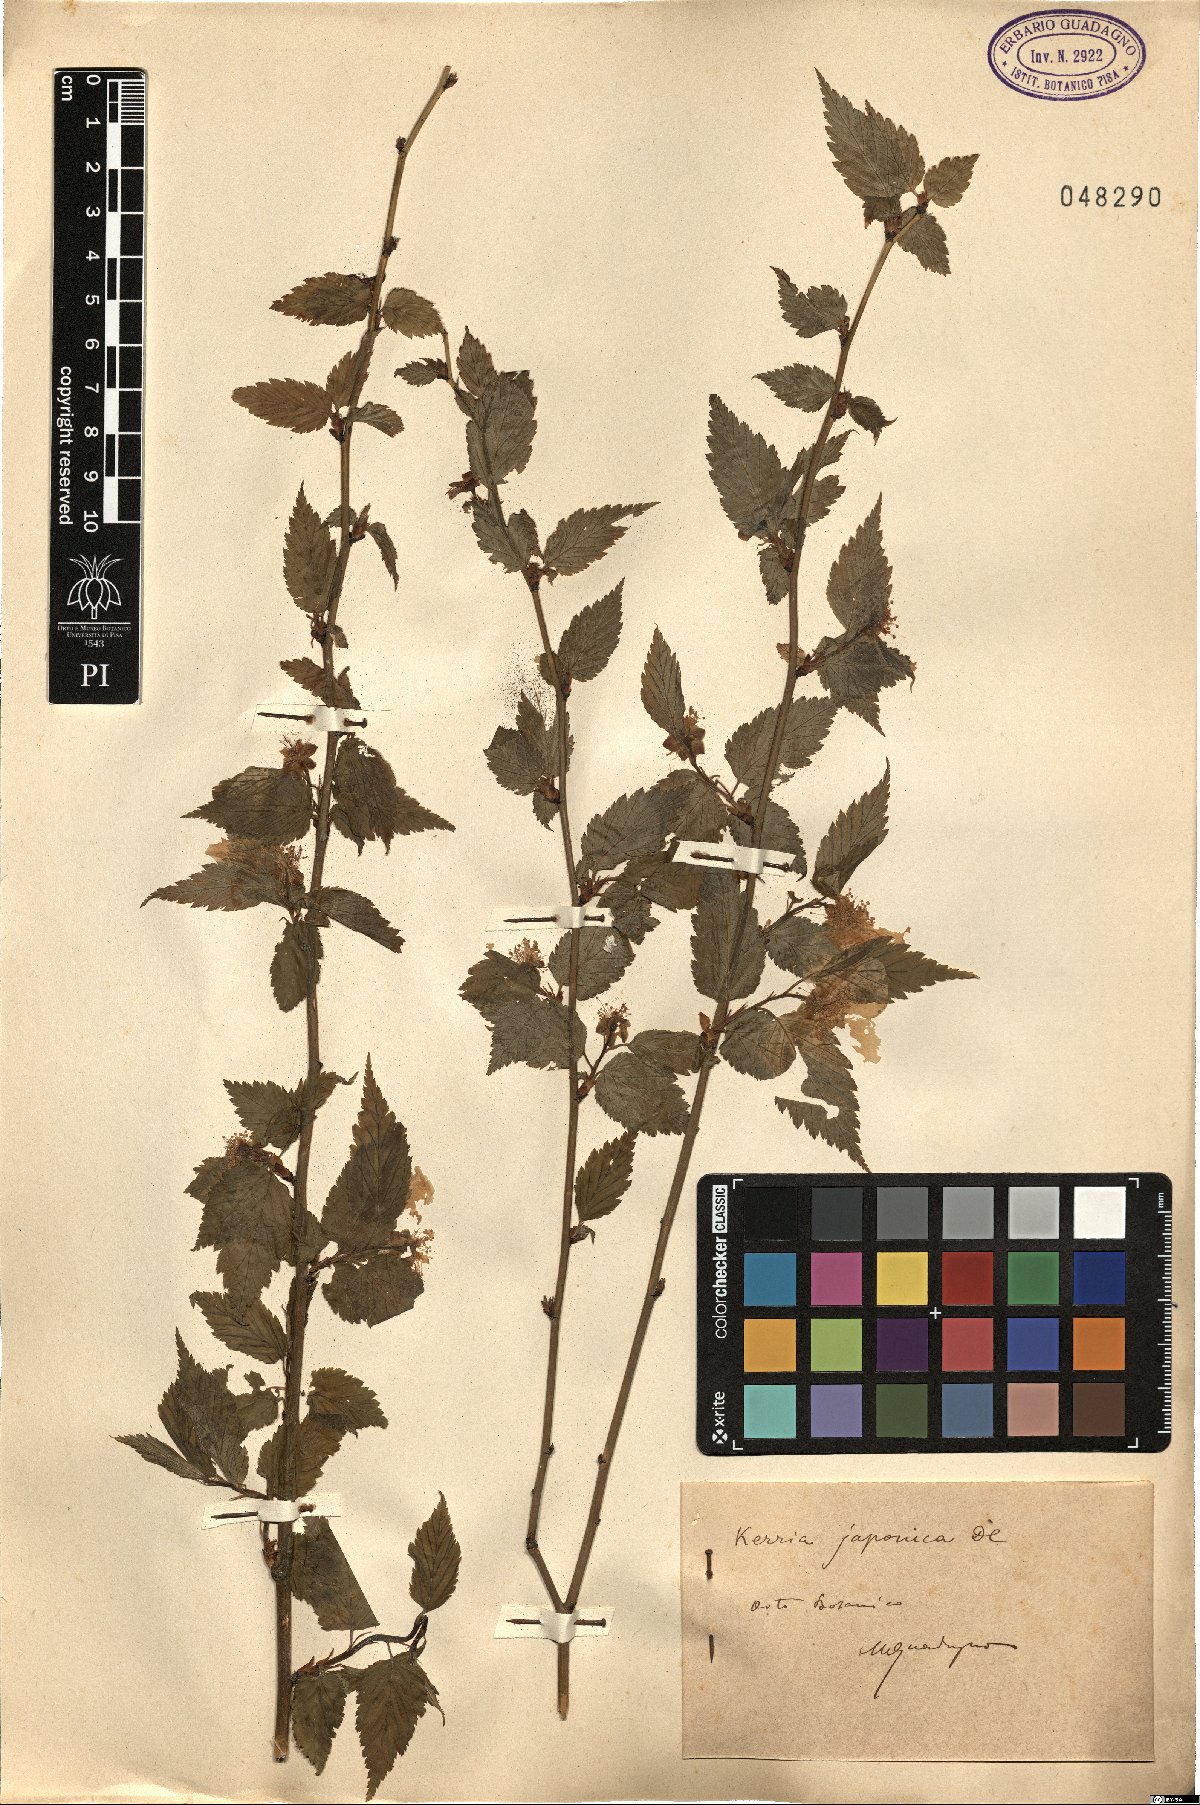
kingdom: Plantae
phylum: Tracheophyta
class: Magnoliopsida
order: Rosales
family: Rosaceae
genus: Kerria
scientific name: Kerria japonica
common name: Japanese kerria
